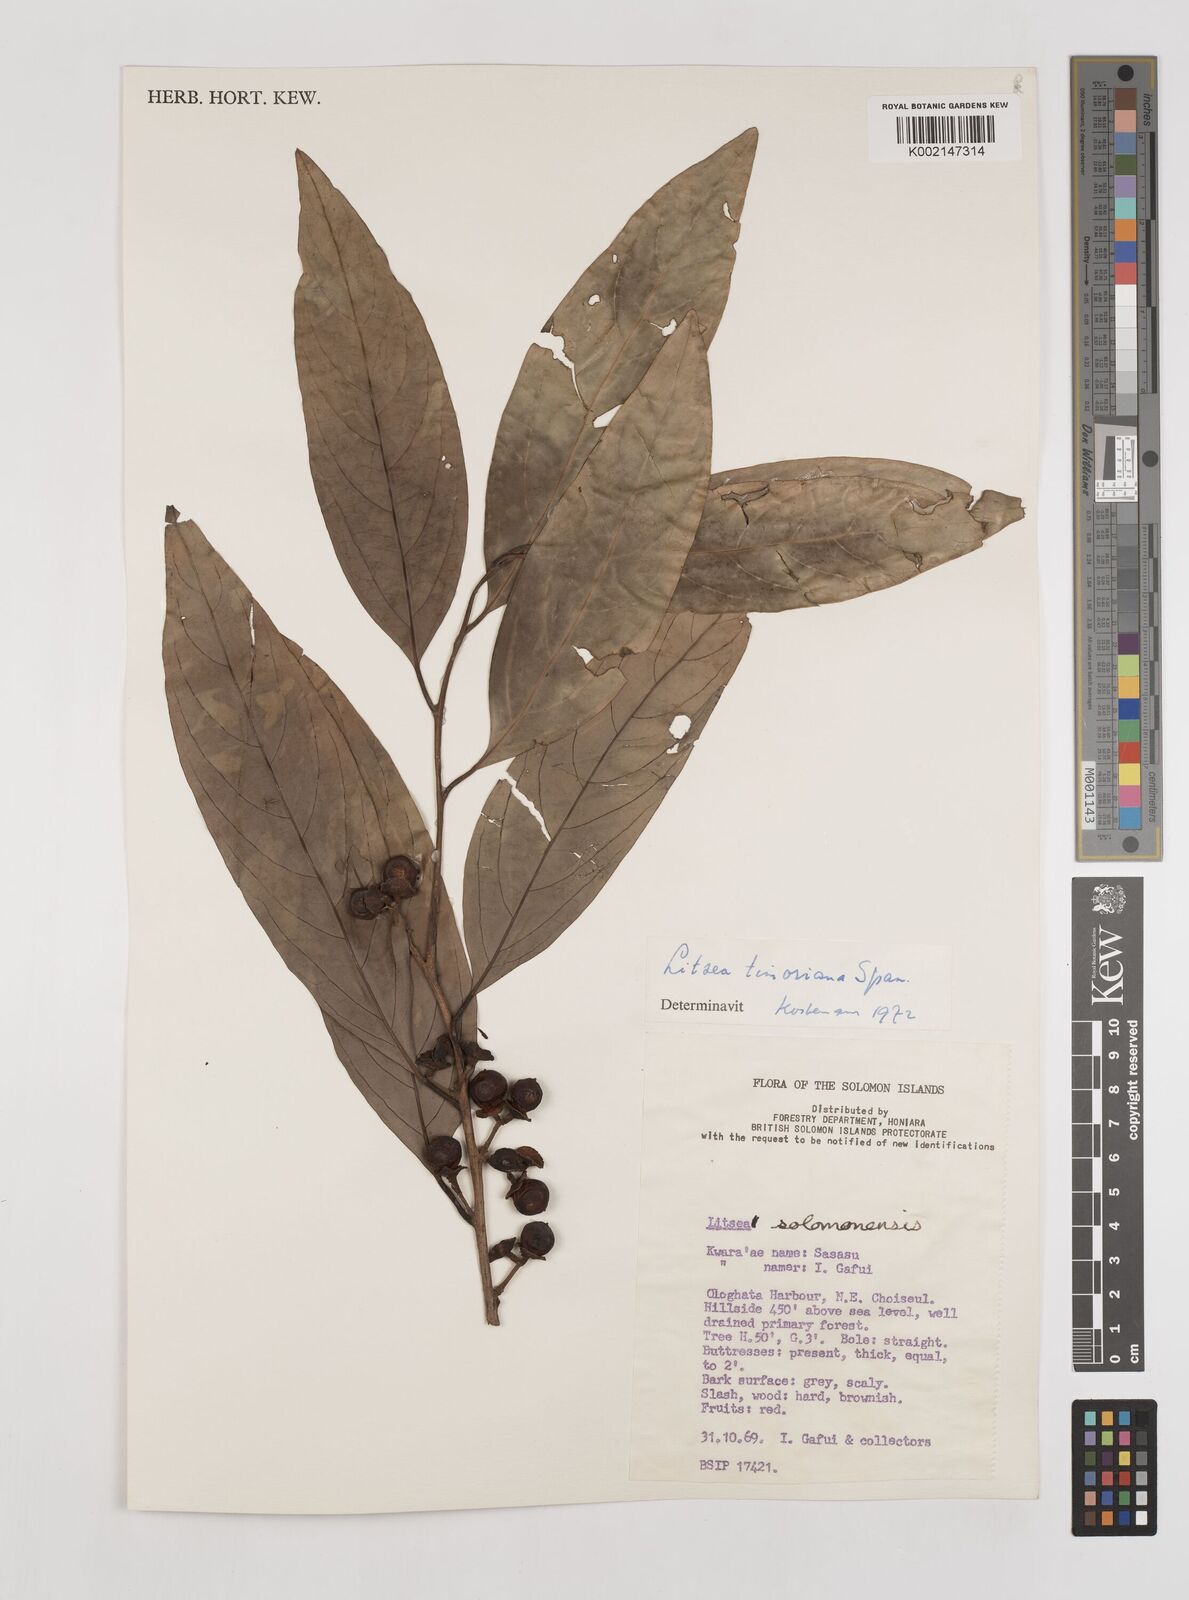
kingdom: Plantae
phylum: Tracheophyta
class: Magnoliopsida
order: Laurales
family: Lauraceae
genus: Litsea
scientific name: Litsea timoriana
